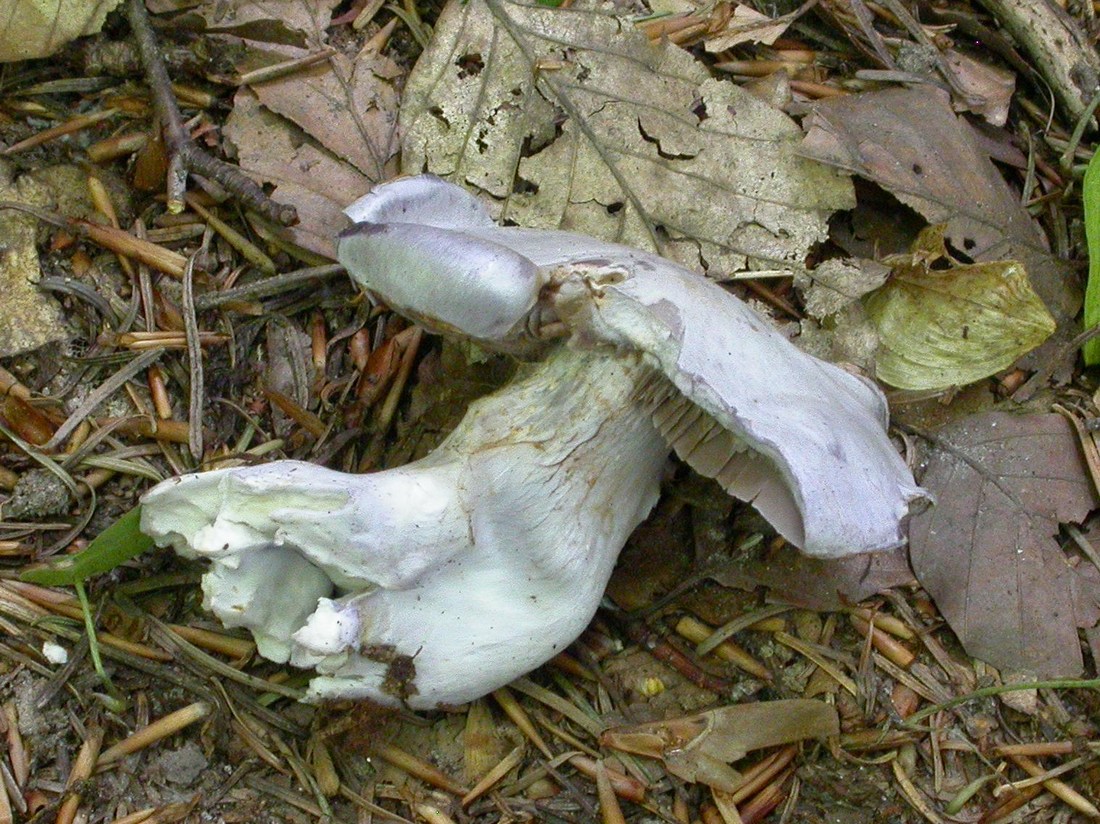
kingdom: Fungi
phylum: Basidiomycota
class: Agaricomycetes
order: Agaricales
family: Cortinariaceae
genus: Cortinarius
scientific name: Cortinarius alboviolaceus
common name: lysviolet slørhat
